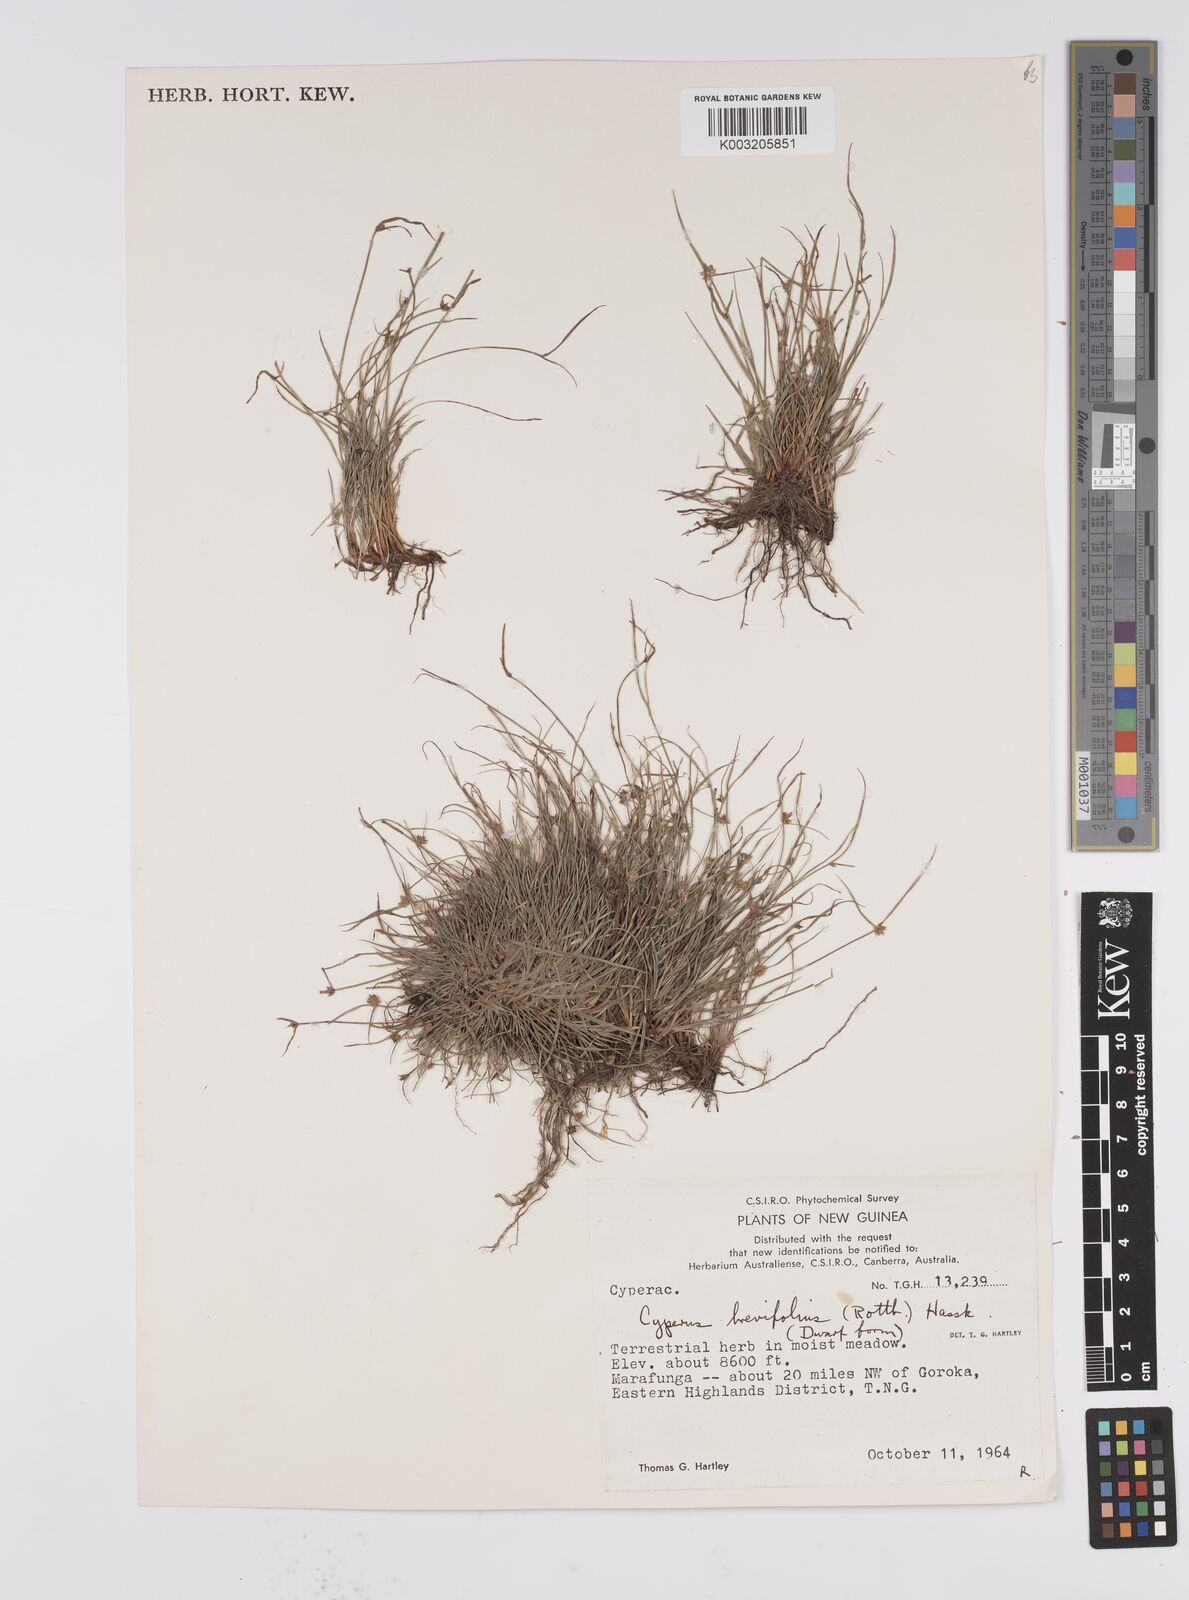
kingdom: Plantae
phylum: Tracheophyta
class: Liliopsida
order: Poales
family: Cyperaceae
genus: Cyperus
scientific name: Cyperus brevifolius
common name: Globe kyllinga
